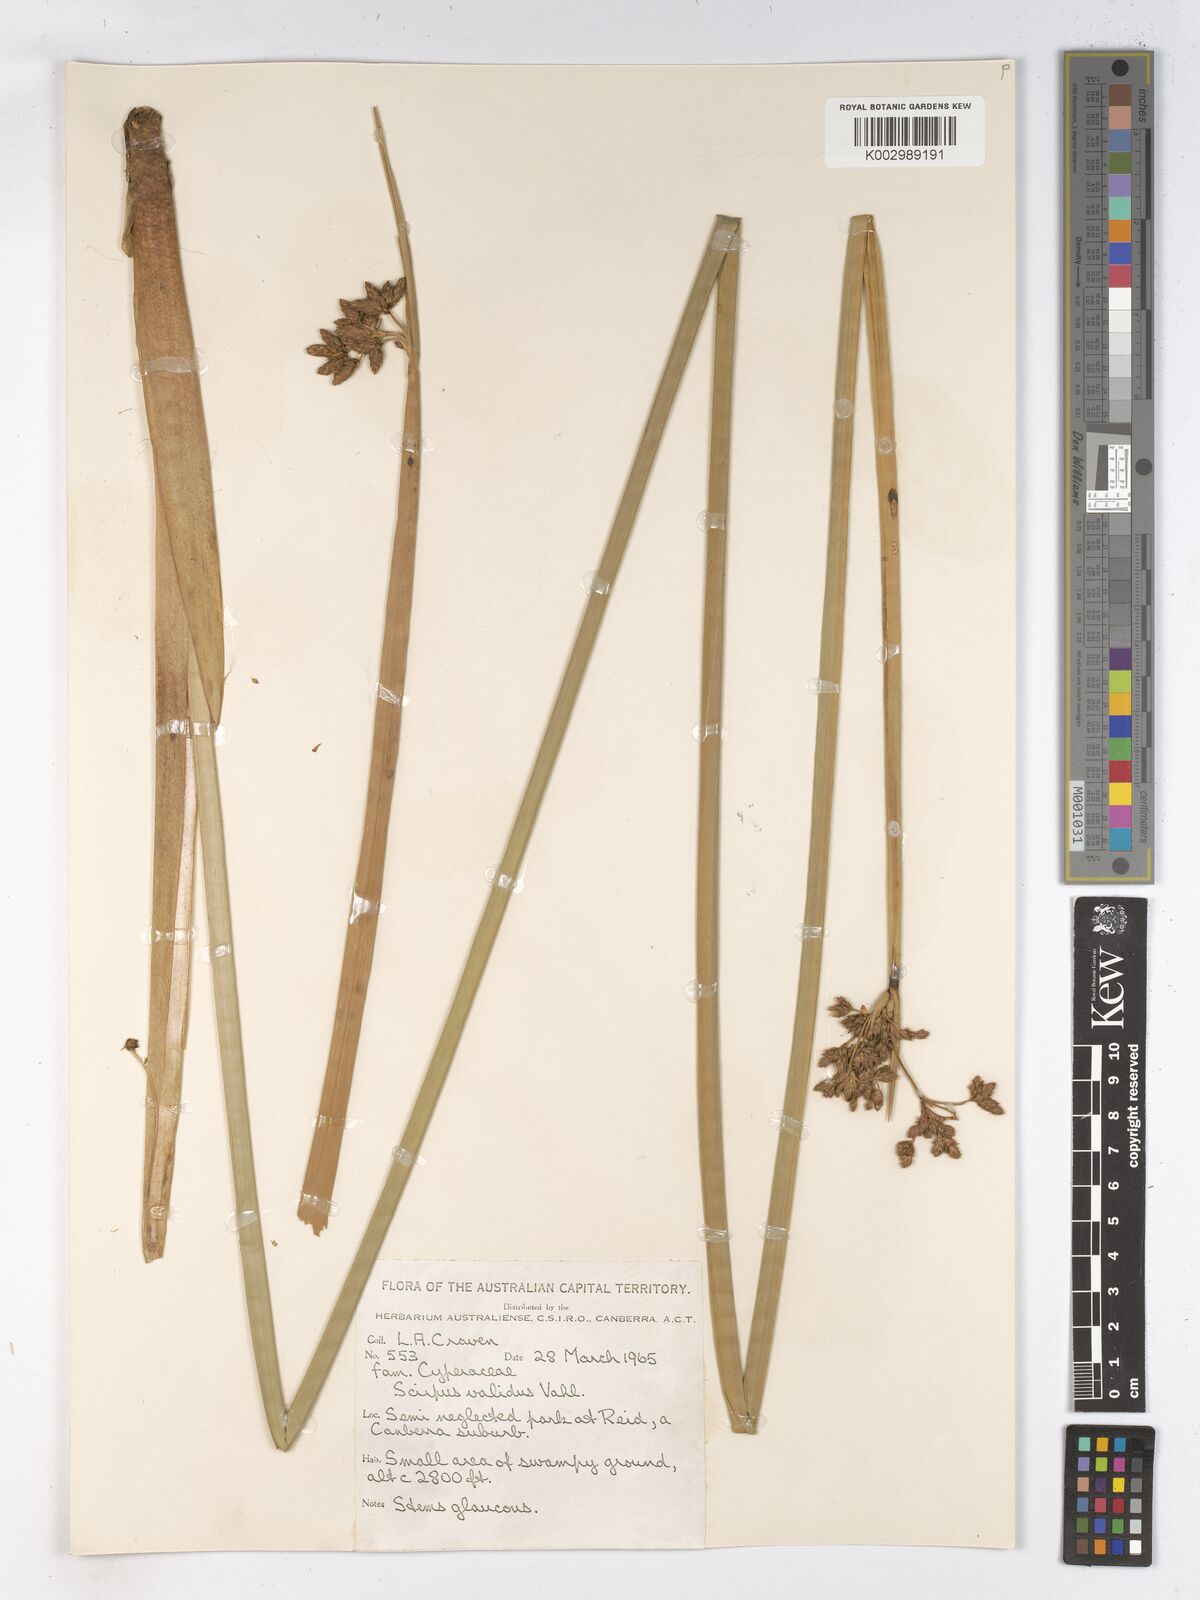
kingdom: Plantae
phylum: Tracheophyta
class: Liliopsida
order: Poales
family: Cyperaceae
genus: Schoenoplectus
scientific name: Schoenoplectus lacustris
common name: Common club-rush
